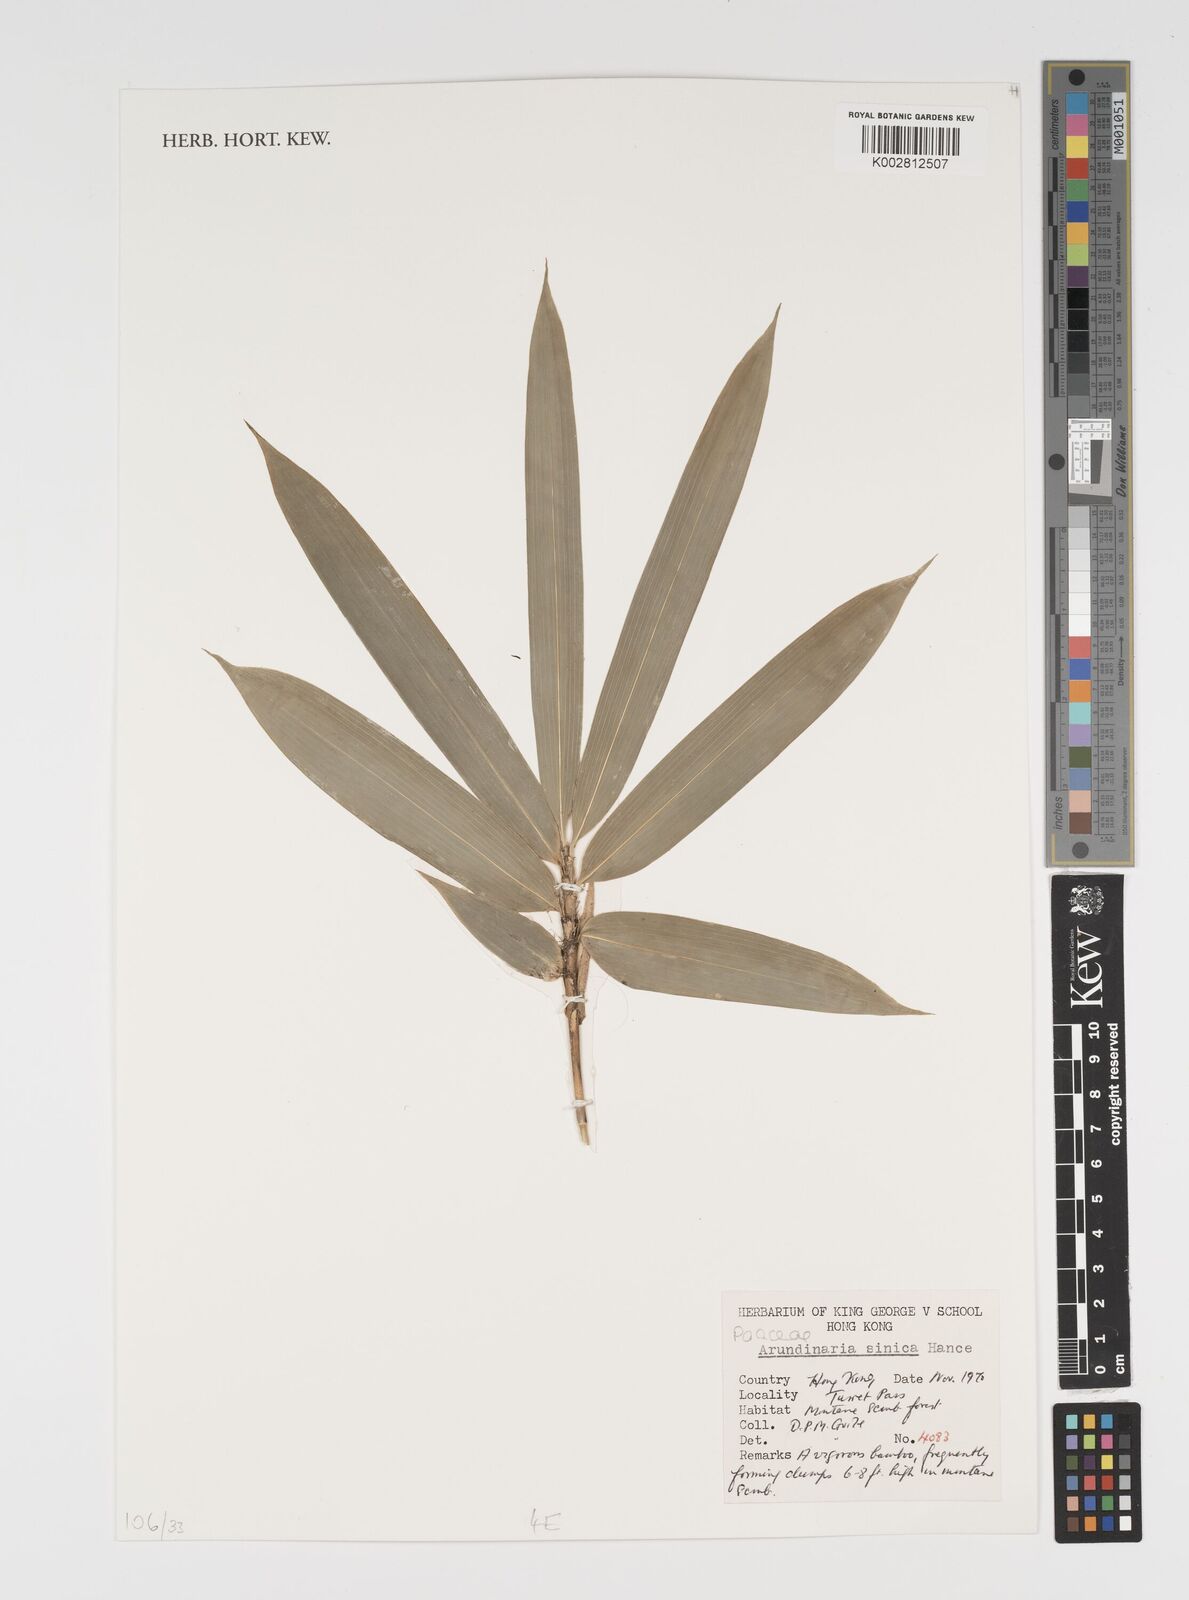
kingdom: Plantae
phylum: Tracheophyta
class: Liliopsida
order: Poales
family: Poaceae
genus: Indocalamus
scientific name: Indocalamus sinicus
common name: Chinese cane
